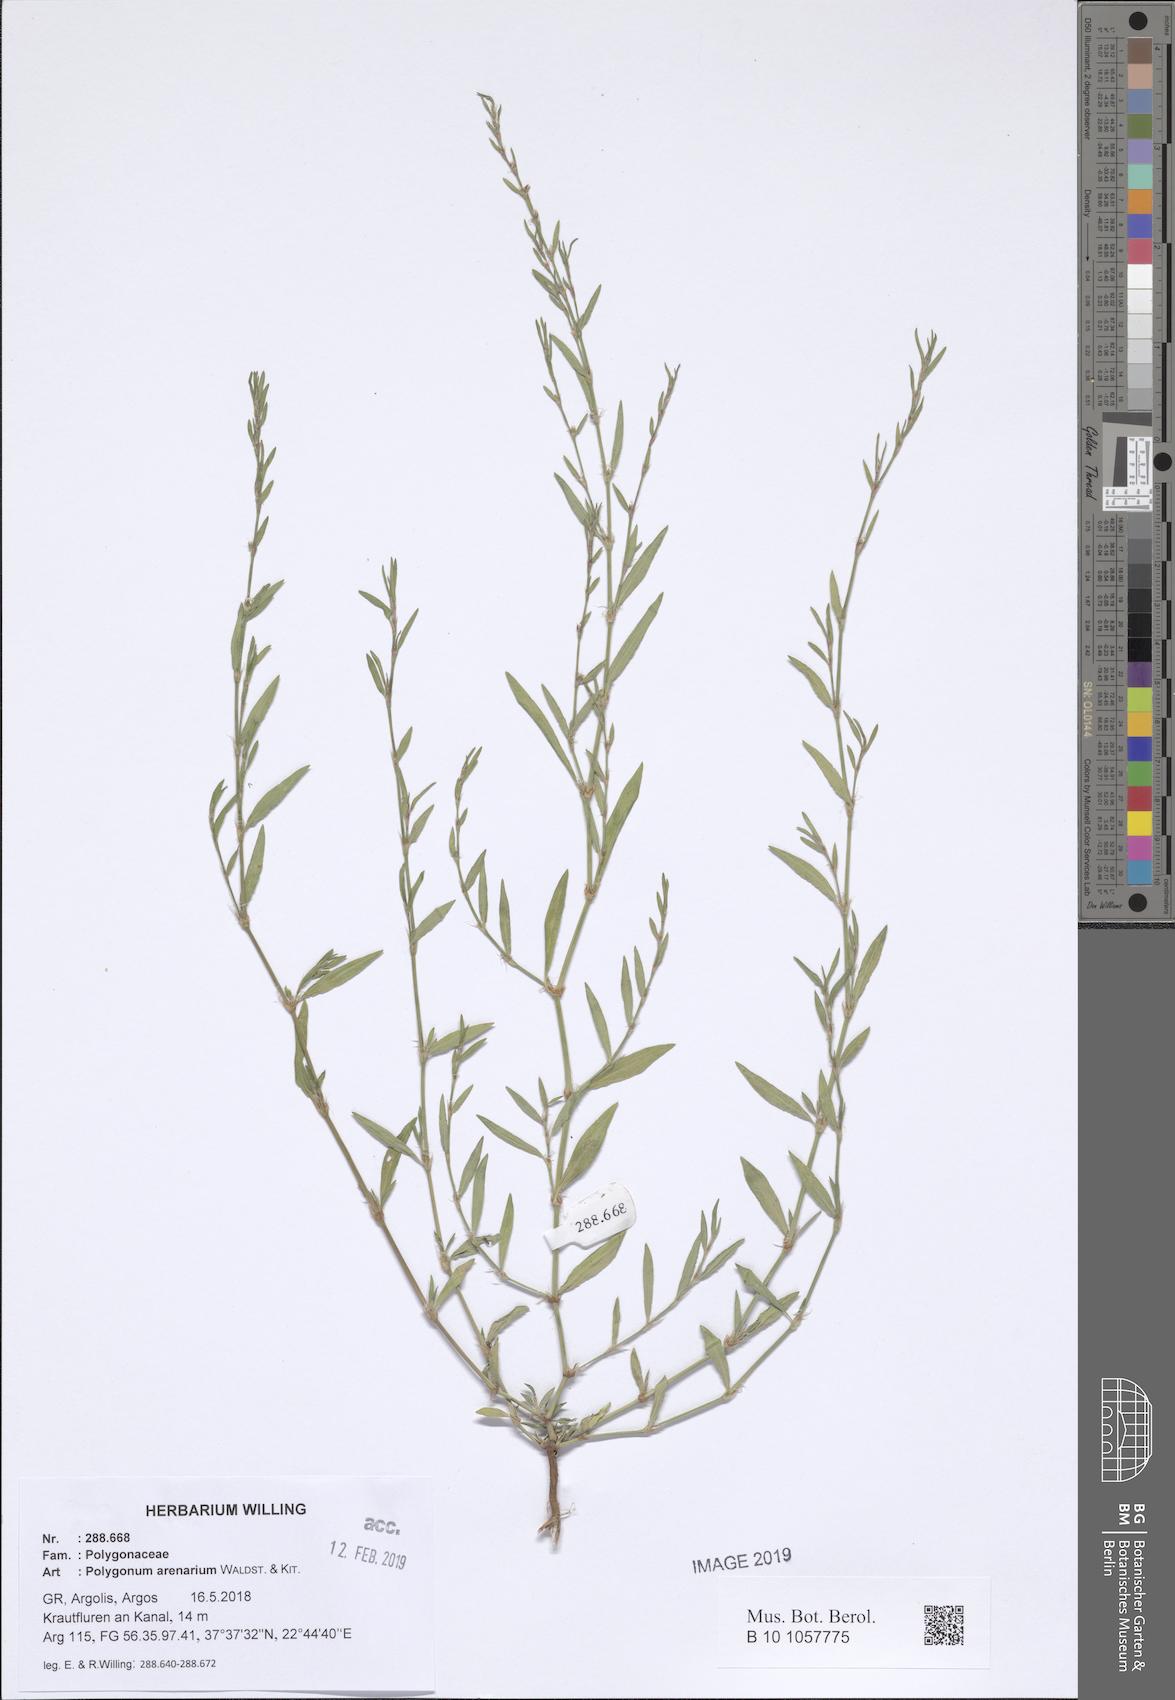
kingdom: Plantae
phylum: Tracheophyta
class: Magnoliopsida
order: Caryophyllales
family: Polygonaceae
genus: Polygonum
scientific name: Polygonum arenarium
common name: Lesser red-knotgrass
